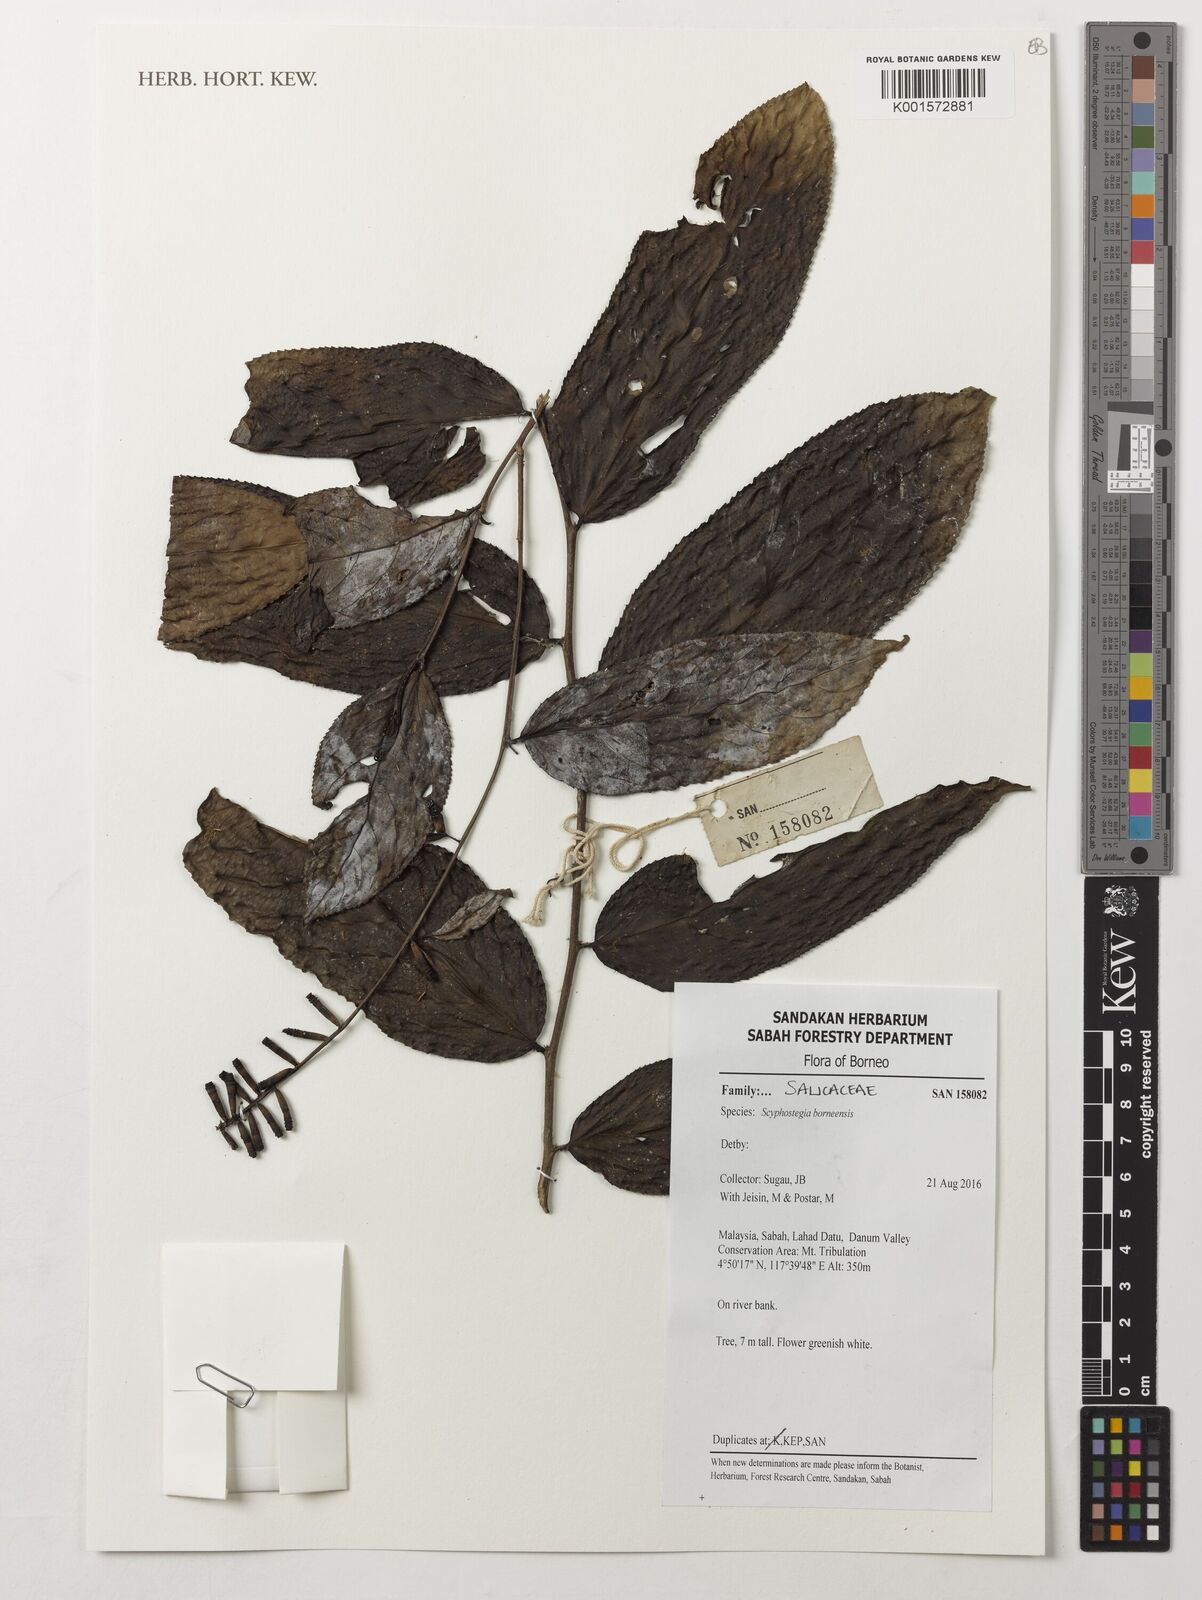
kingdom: Plantae
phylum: Tracheophyta
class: Magnoliopsida
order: Malpighiales
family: Salicaceae
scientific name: Salicaceae
